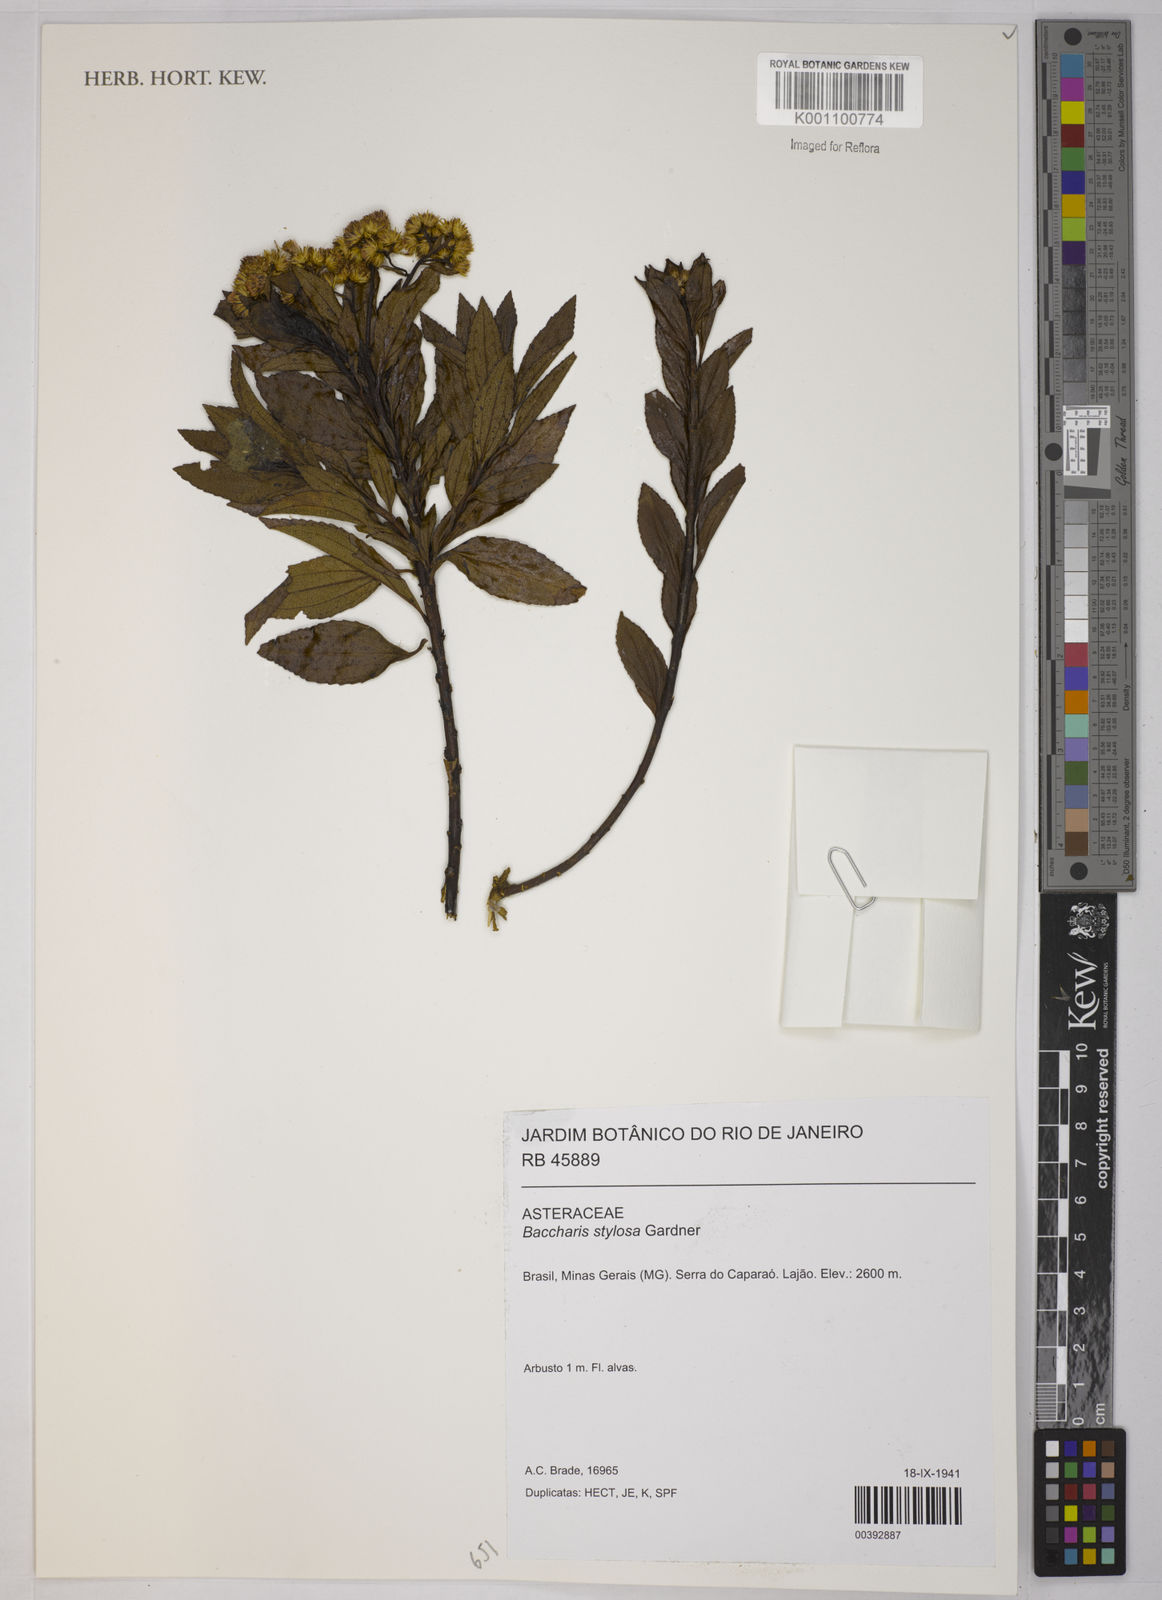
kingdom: Plantae
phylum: Tracheophyta
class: Magnoliopsida
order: Asterales
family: Asteraceae
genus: Baccharis
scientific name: Baccharis stylosa
